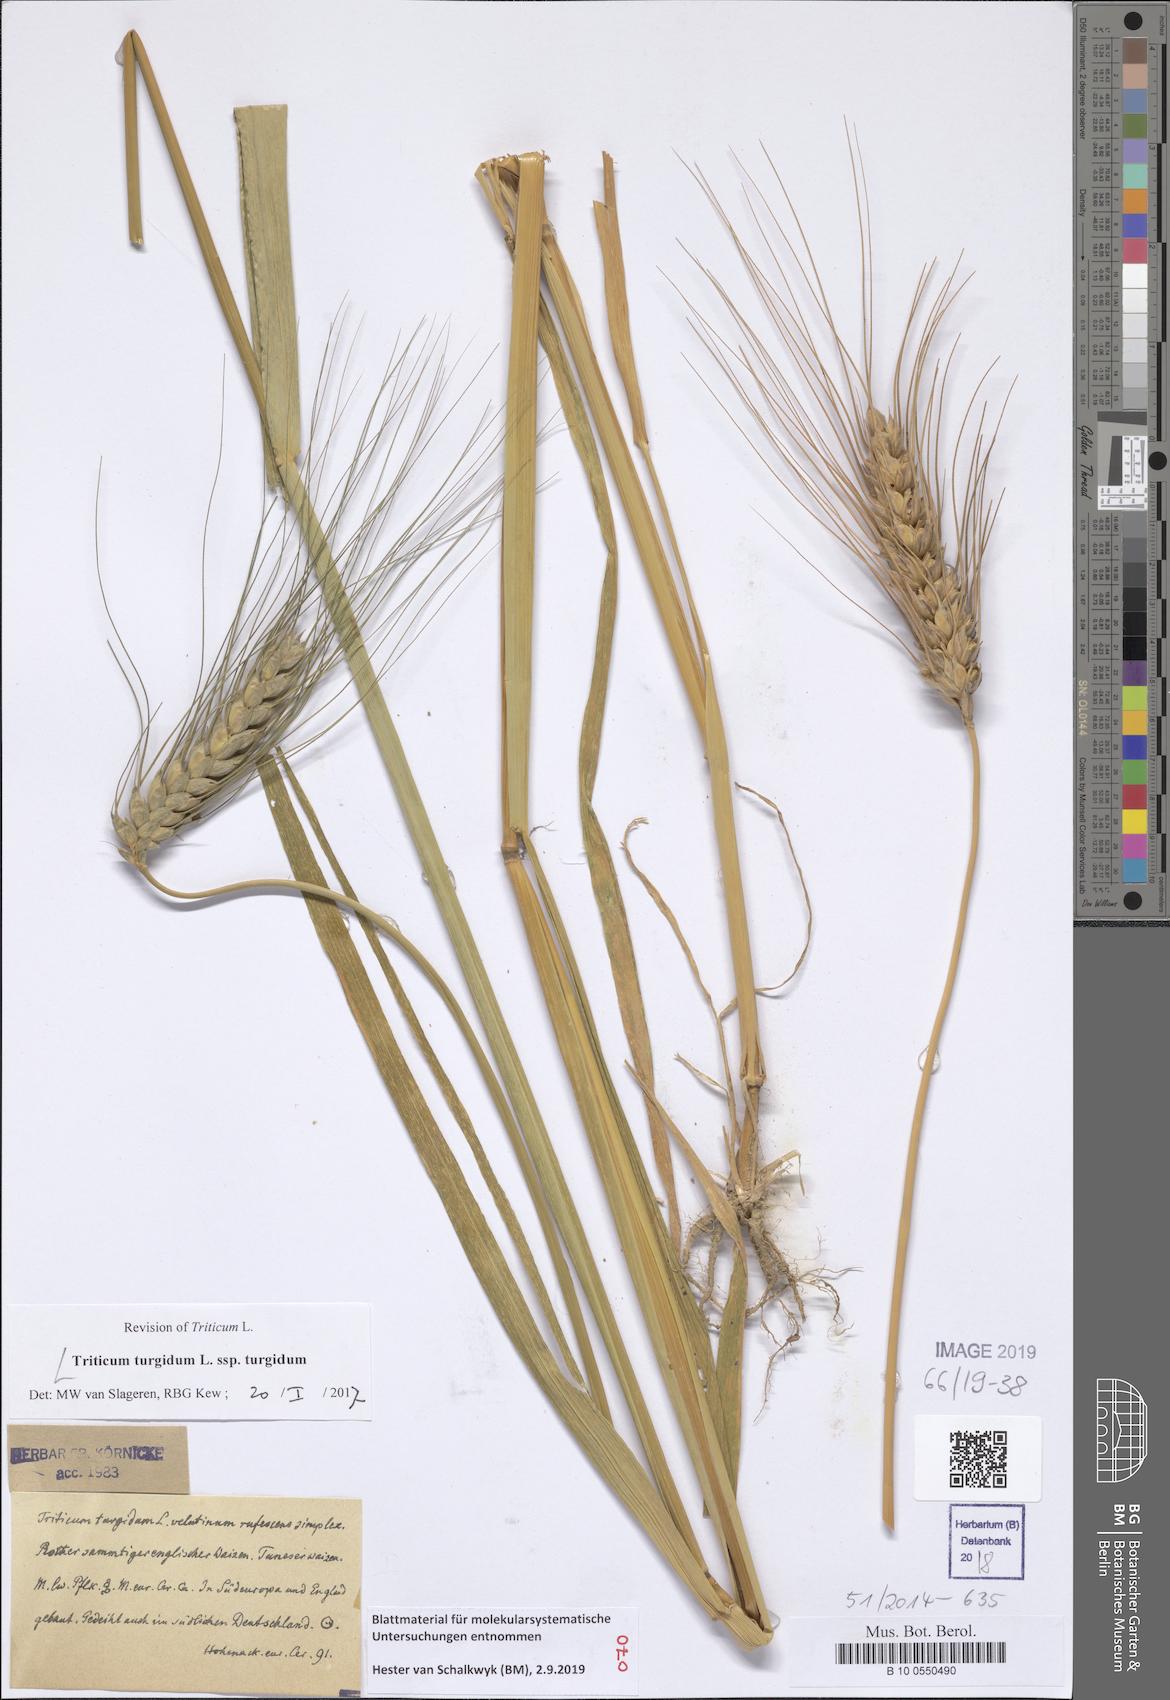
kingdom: Plantae
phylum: Tracheophyta
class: Liliopsida
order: Poales
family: Poaceae
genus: Triticum
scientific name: Triticum turgidum
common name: Rivet wheat
